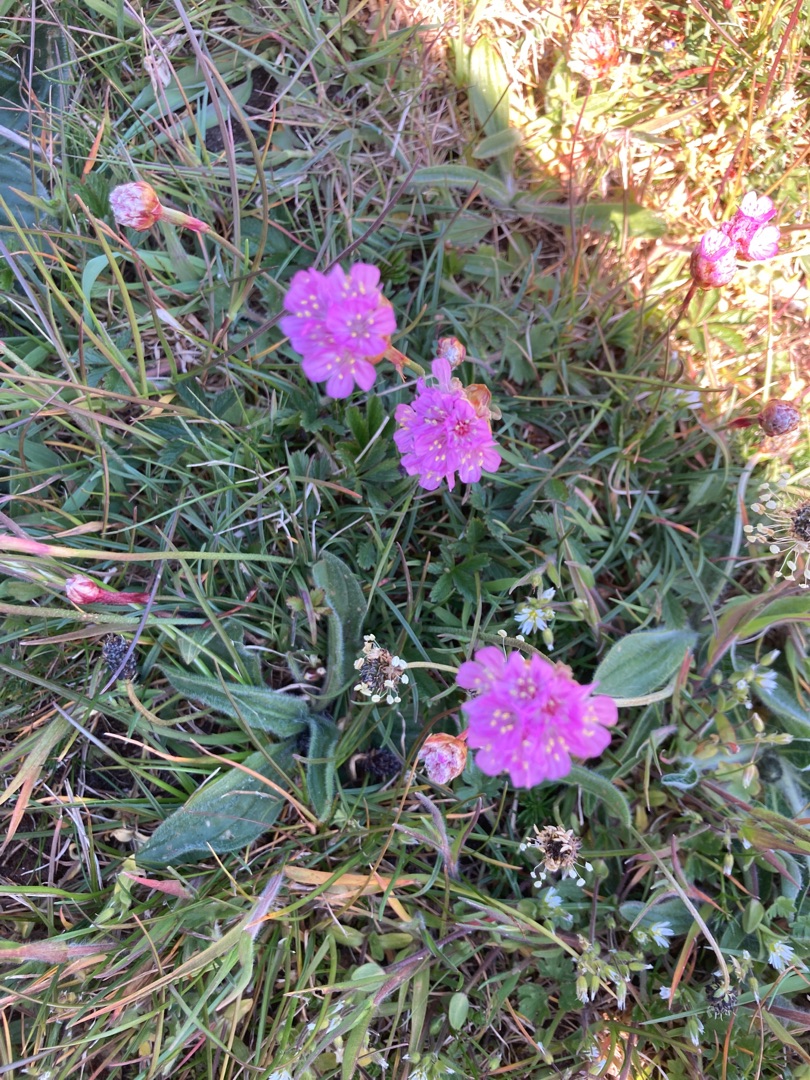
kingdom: Plantae
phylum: Tracheophyta
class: Magnoliopsida
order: Caryophyllales
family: Plumbaginaceae
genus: Armeria
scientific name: Armeria maritima
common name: Engelskgræs
